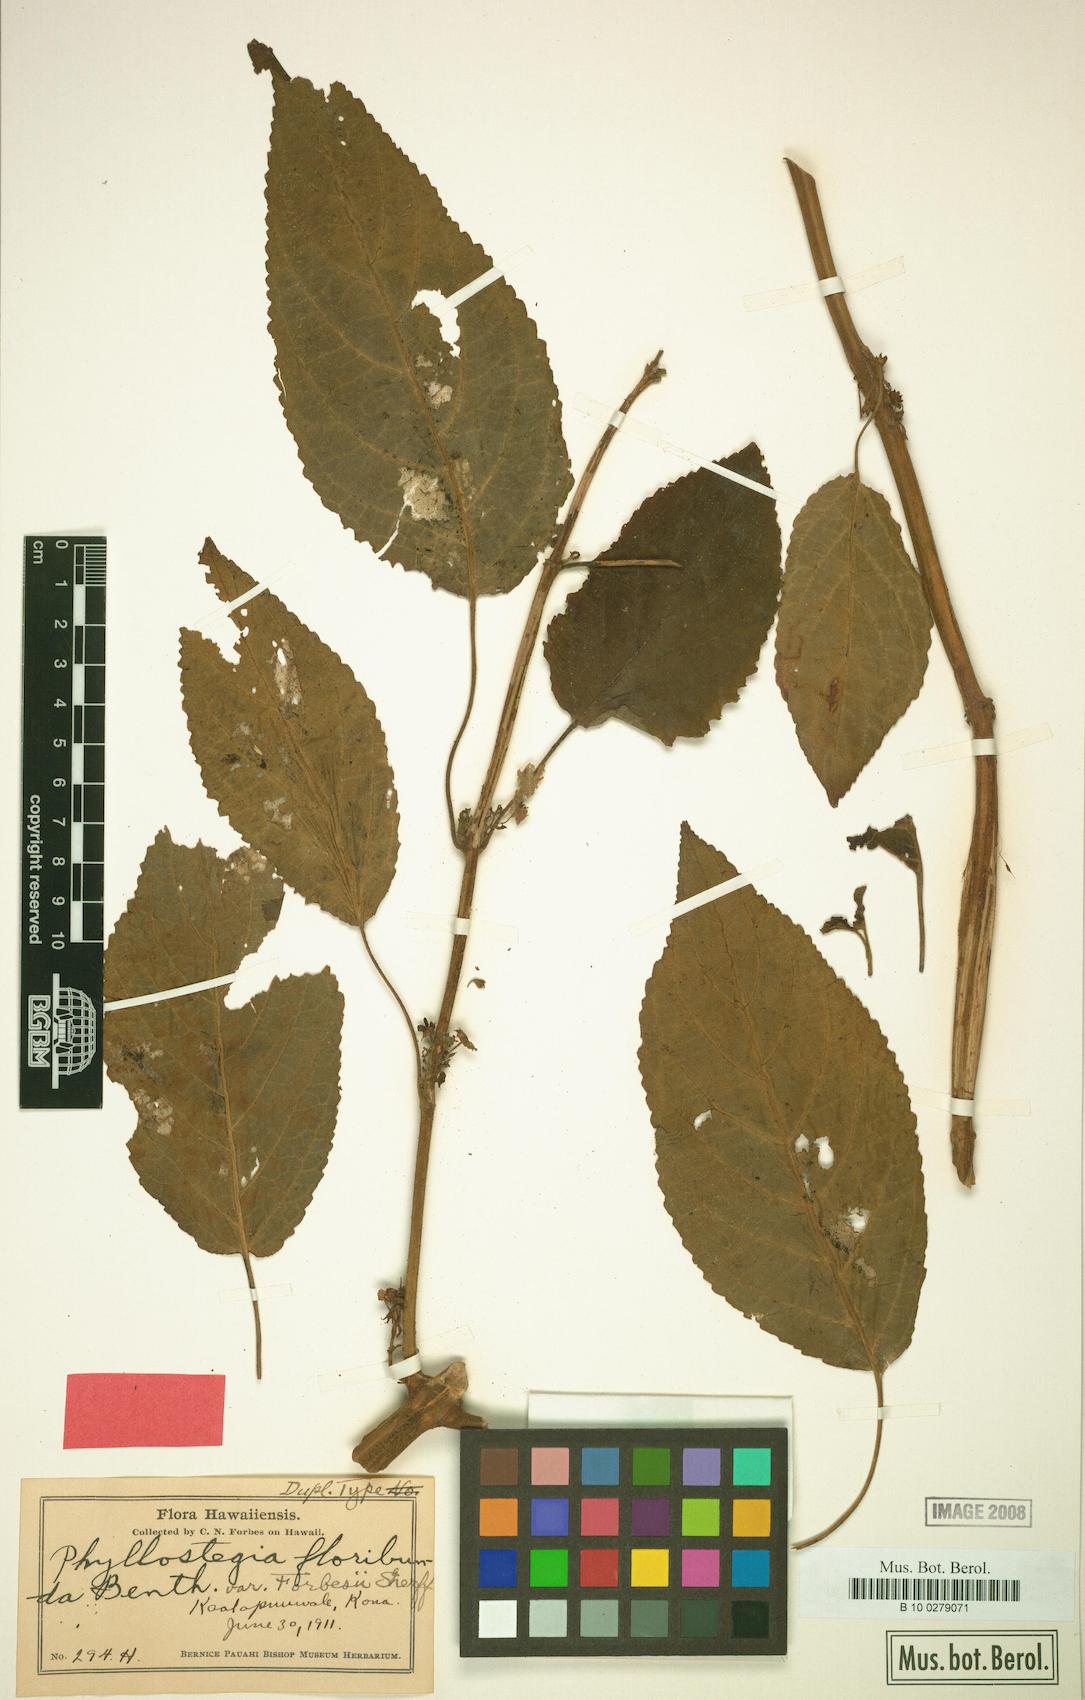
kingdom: Plantae
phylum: Tracheophyta
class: Magnoliopsida
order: Lamiales
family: Lamiaceae
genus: Phyllostegia
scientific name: Phyllostegia floribunda
